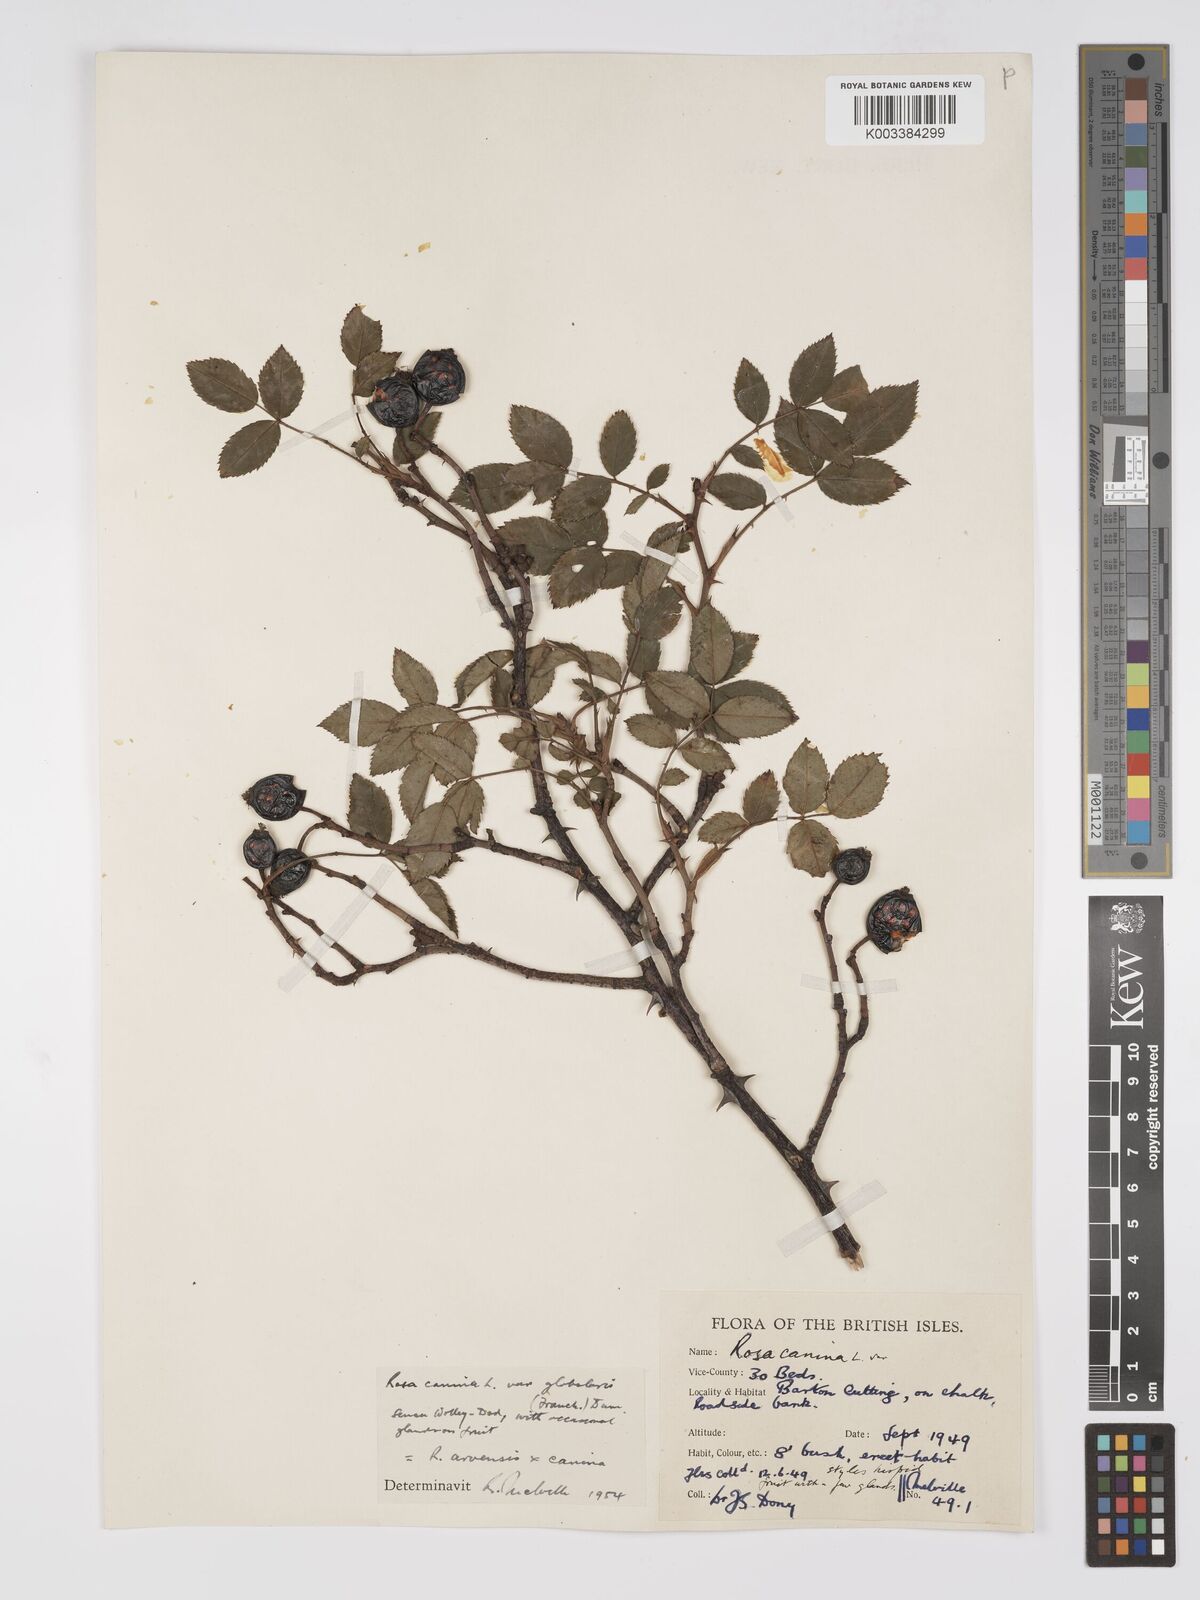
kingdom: Plantae
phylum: Tracheophyta
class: Magnoliopsida
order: Rosales
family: Rosaceae
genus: Rosa
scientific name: Rosa canina
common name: Dog rose
